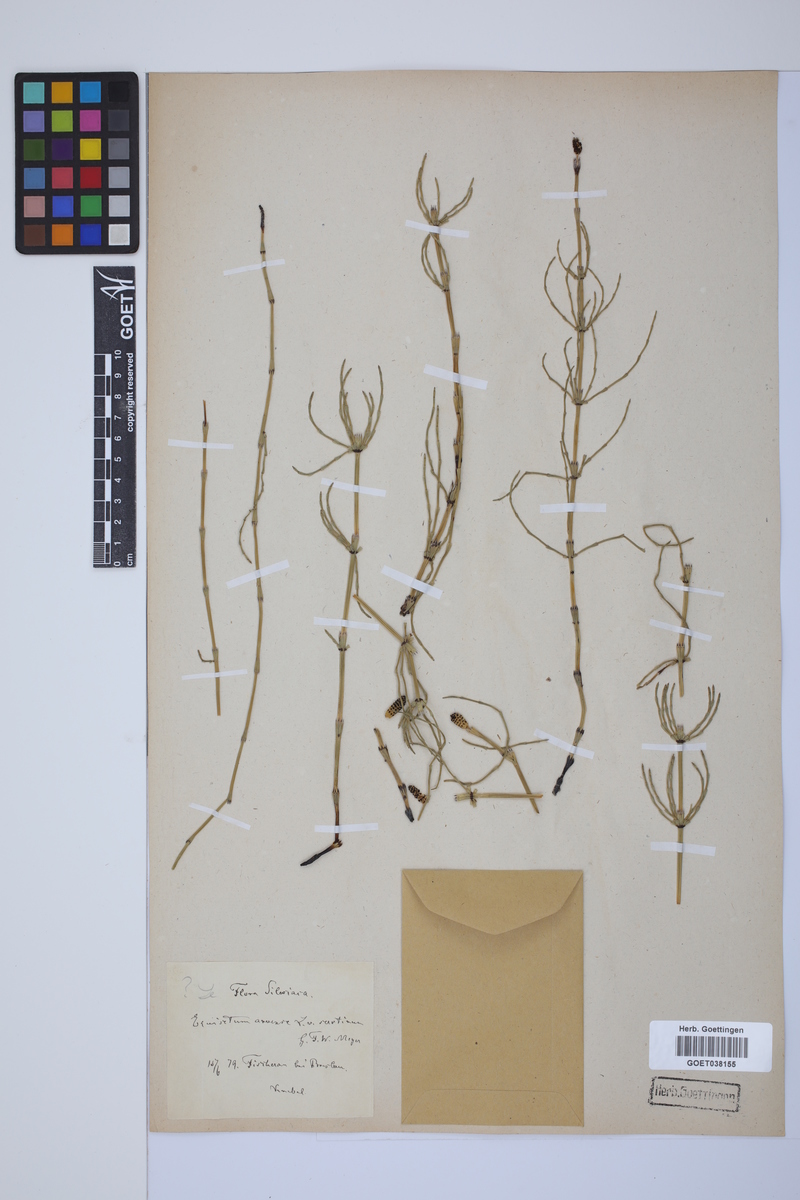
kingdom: Plantae
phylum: Tracheophyta
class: Polypodiopsida
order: Equisetales
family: Equisetaceae
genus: Equisetum
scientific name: Equisetum arvense
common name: Field horsetail
